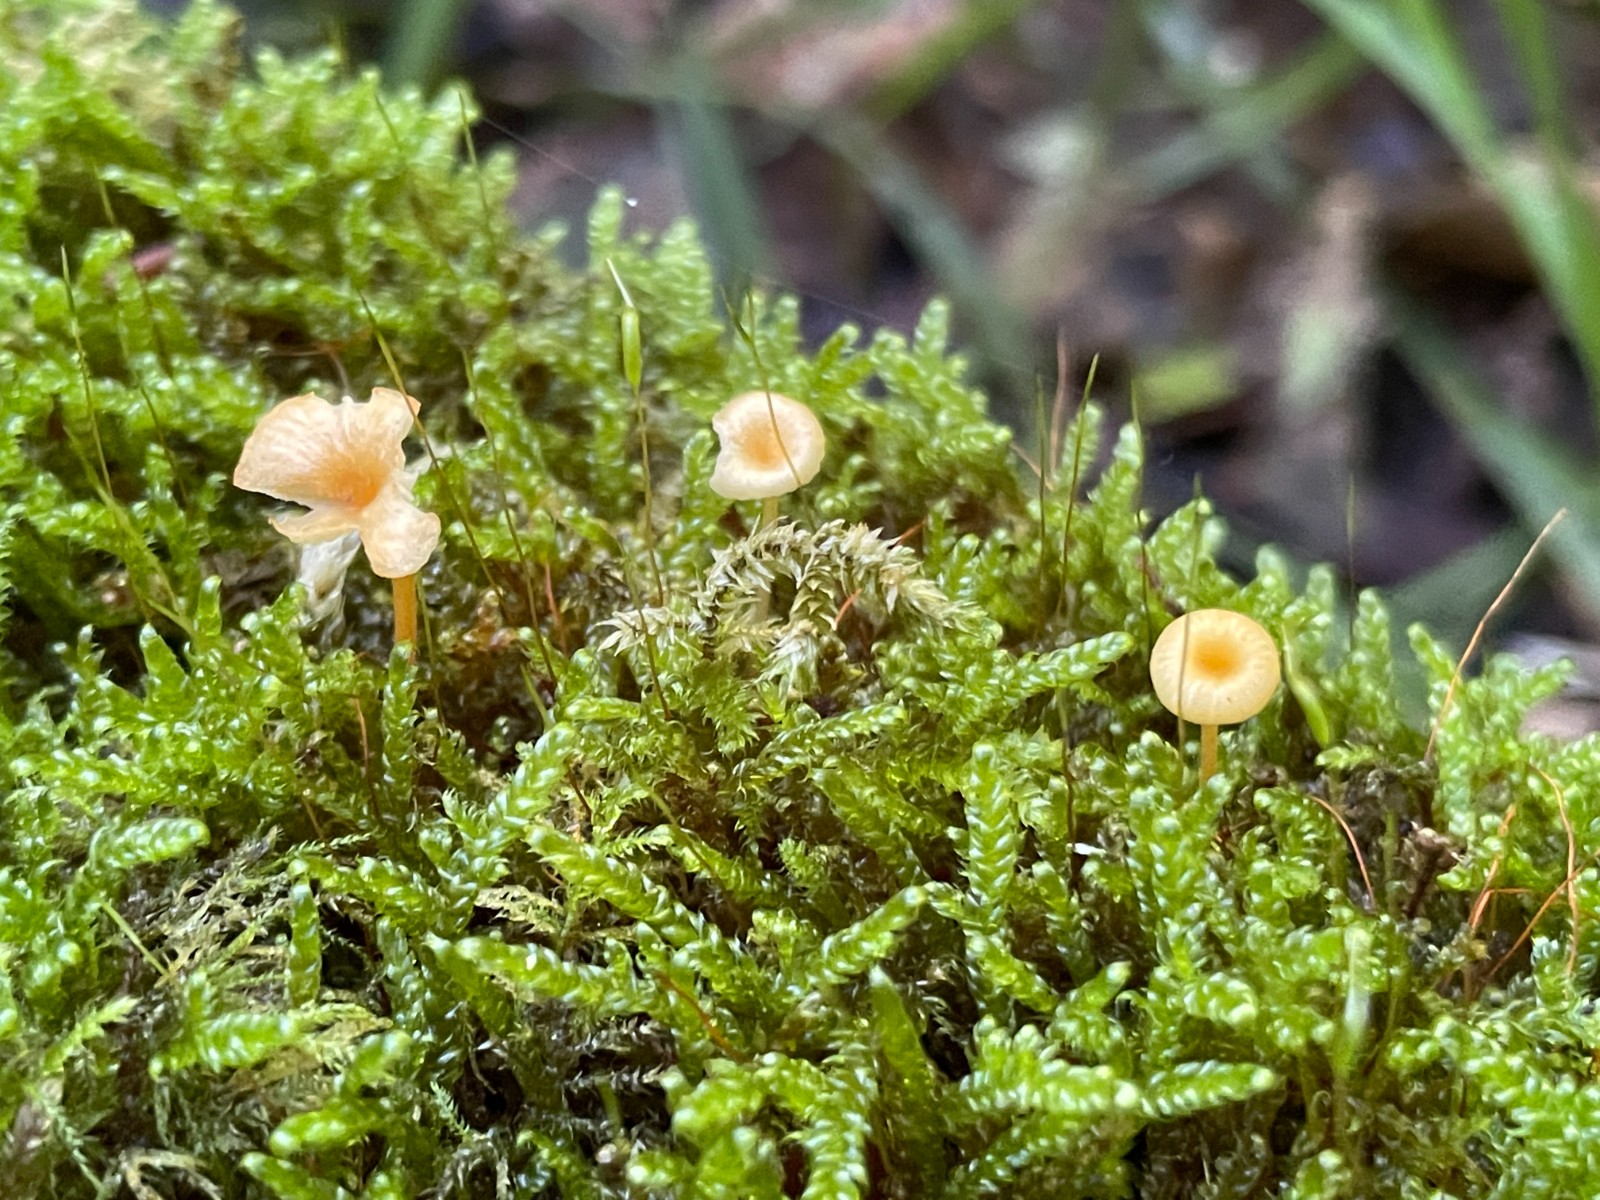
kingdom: Fungi
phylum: Basidiomycota
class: Agaricomycetes
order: Hymenochaetales
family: Rickenellaceae
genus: Rickenella
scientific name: Rickenella fibula
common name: orange mosnavlehat
